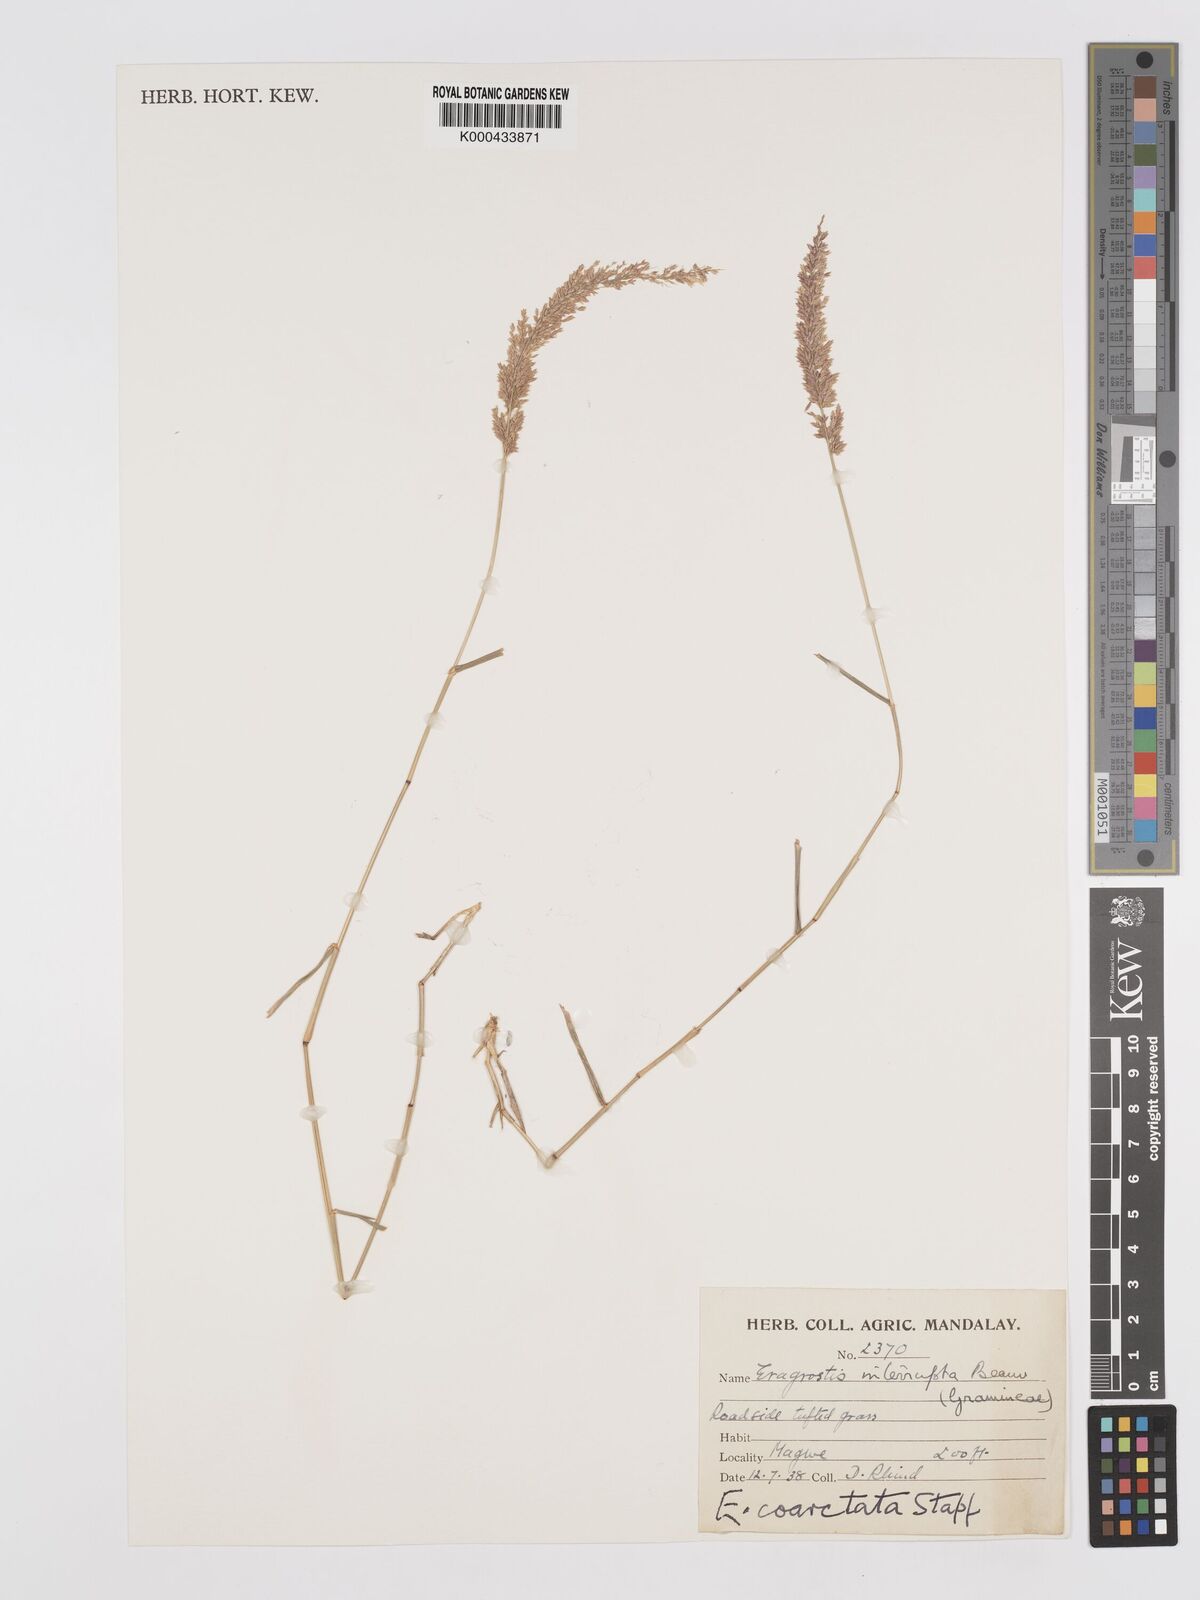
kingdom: Plantae
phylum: Tracheophyta
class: Liliopsida
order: Poales
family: Poaceae
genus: Eragrostis
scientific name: Eragrostis coarctata
